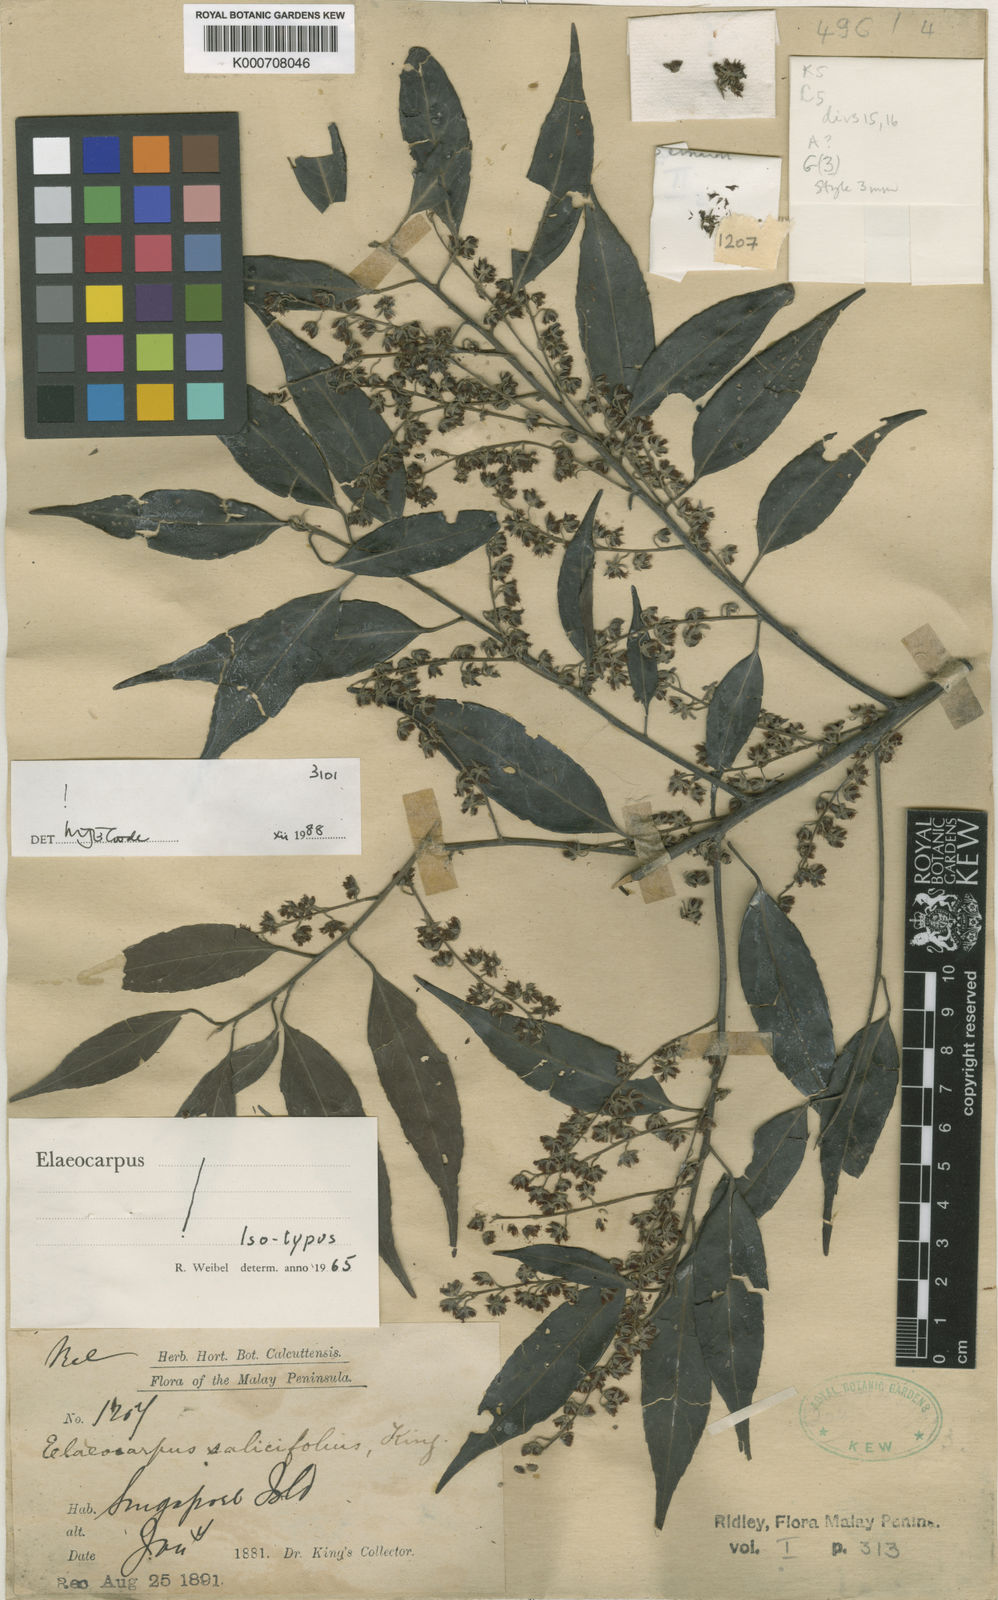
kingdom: Plantae
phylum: Tracheophyta
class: Magnoliopsida
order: Oxalidales
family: Elaeocarpaceae
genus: Elaeocarpus
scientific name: Elaeocarpus nitidus
